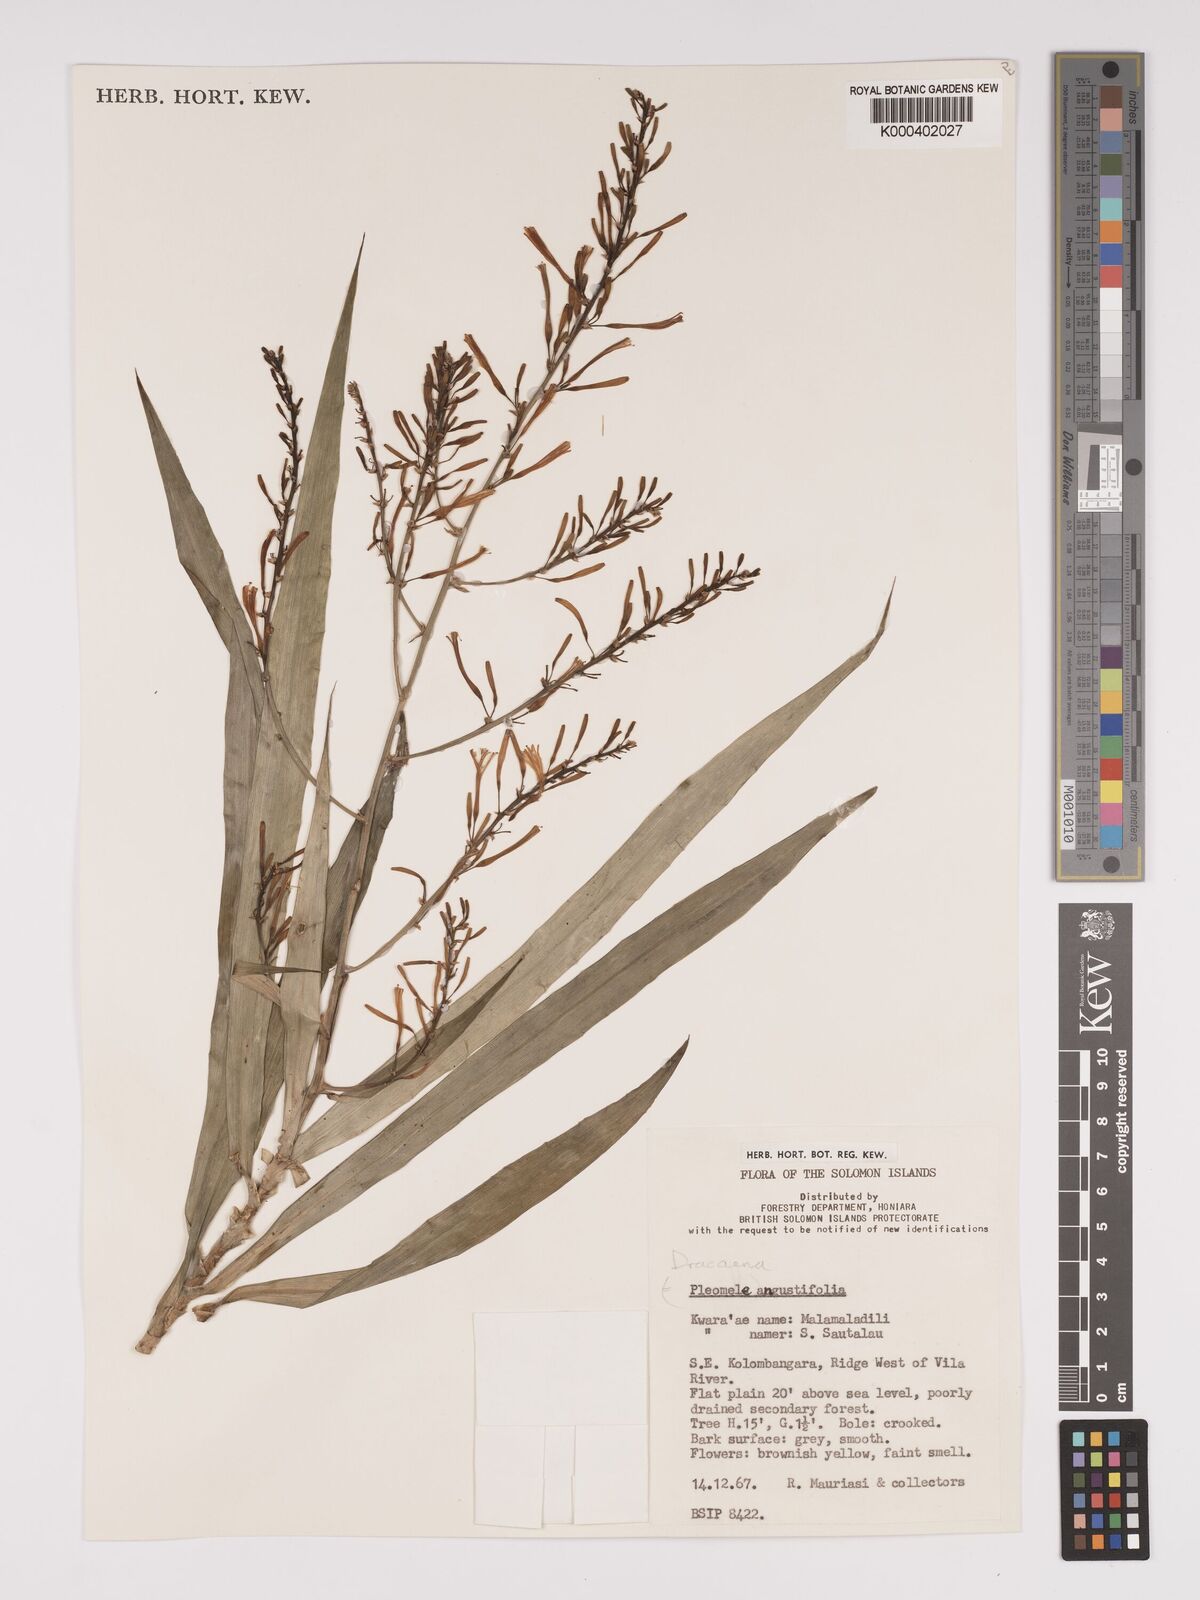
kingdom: Plantae
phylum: Tracheophyta
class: Liliopsida
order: Asparagales
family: Asparagaceae
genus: Dracaena
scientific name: Dracaena angustifolia
